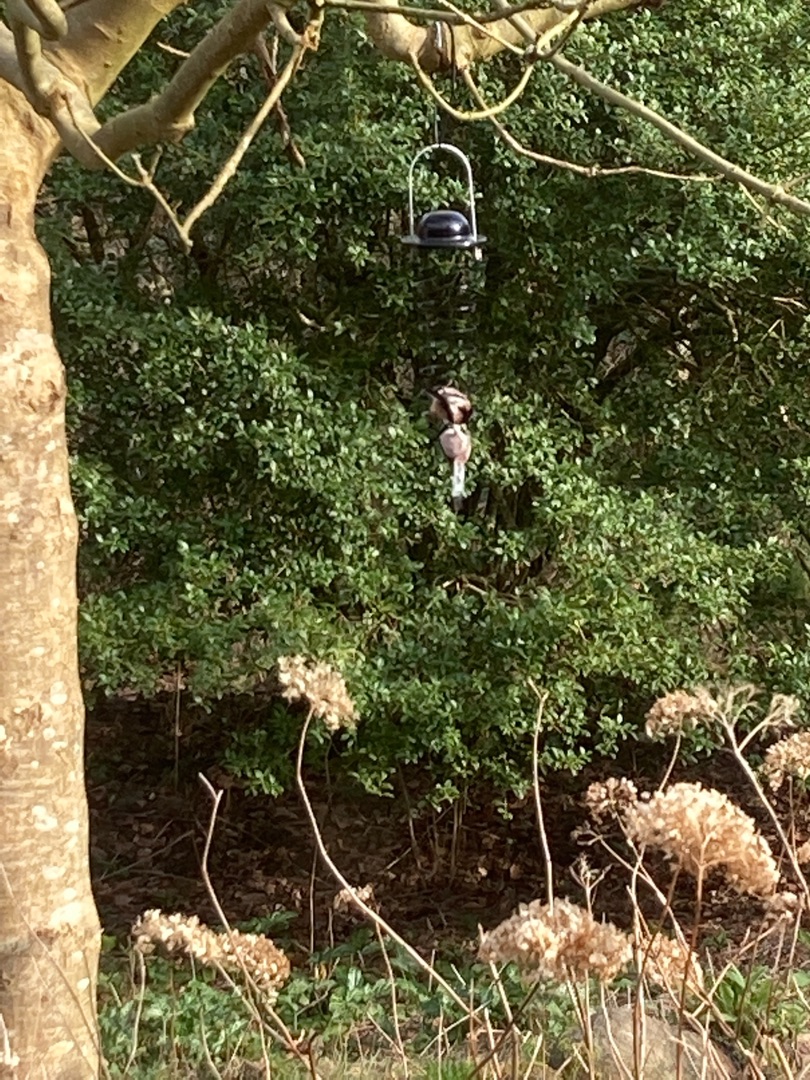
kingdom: Animalia
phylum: Chordata
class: Aves
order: Passeriformes
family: Aegithalidae
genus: Aegithalos
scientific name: Aegithalos caudatus
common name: Halemejse
